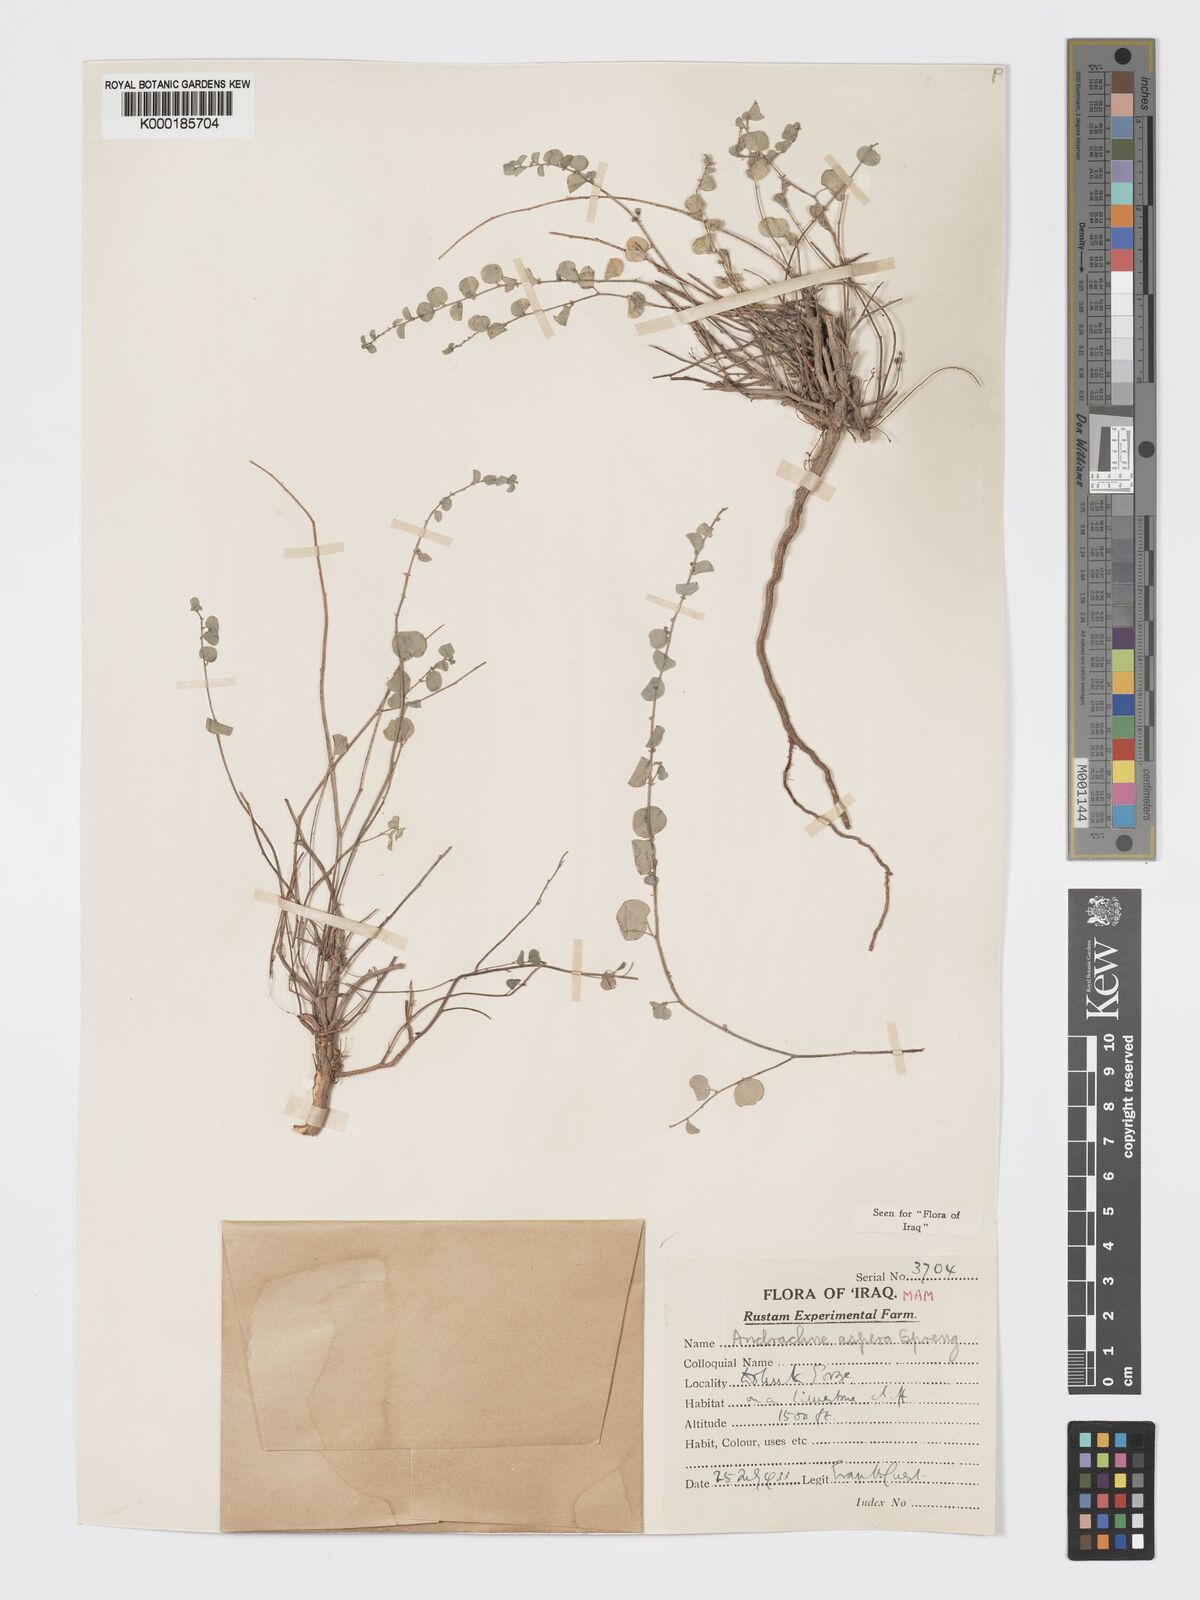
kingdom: Plantae
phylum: Tracheophyta
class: Magnoliopsida
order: Malpighiales
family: Phyllanthaceae
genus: Andrachne
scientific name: Andrachne aspera
